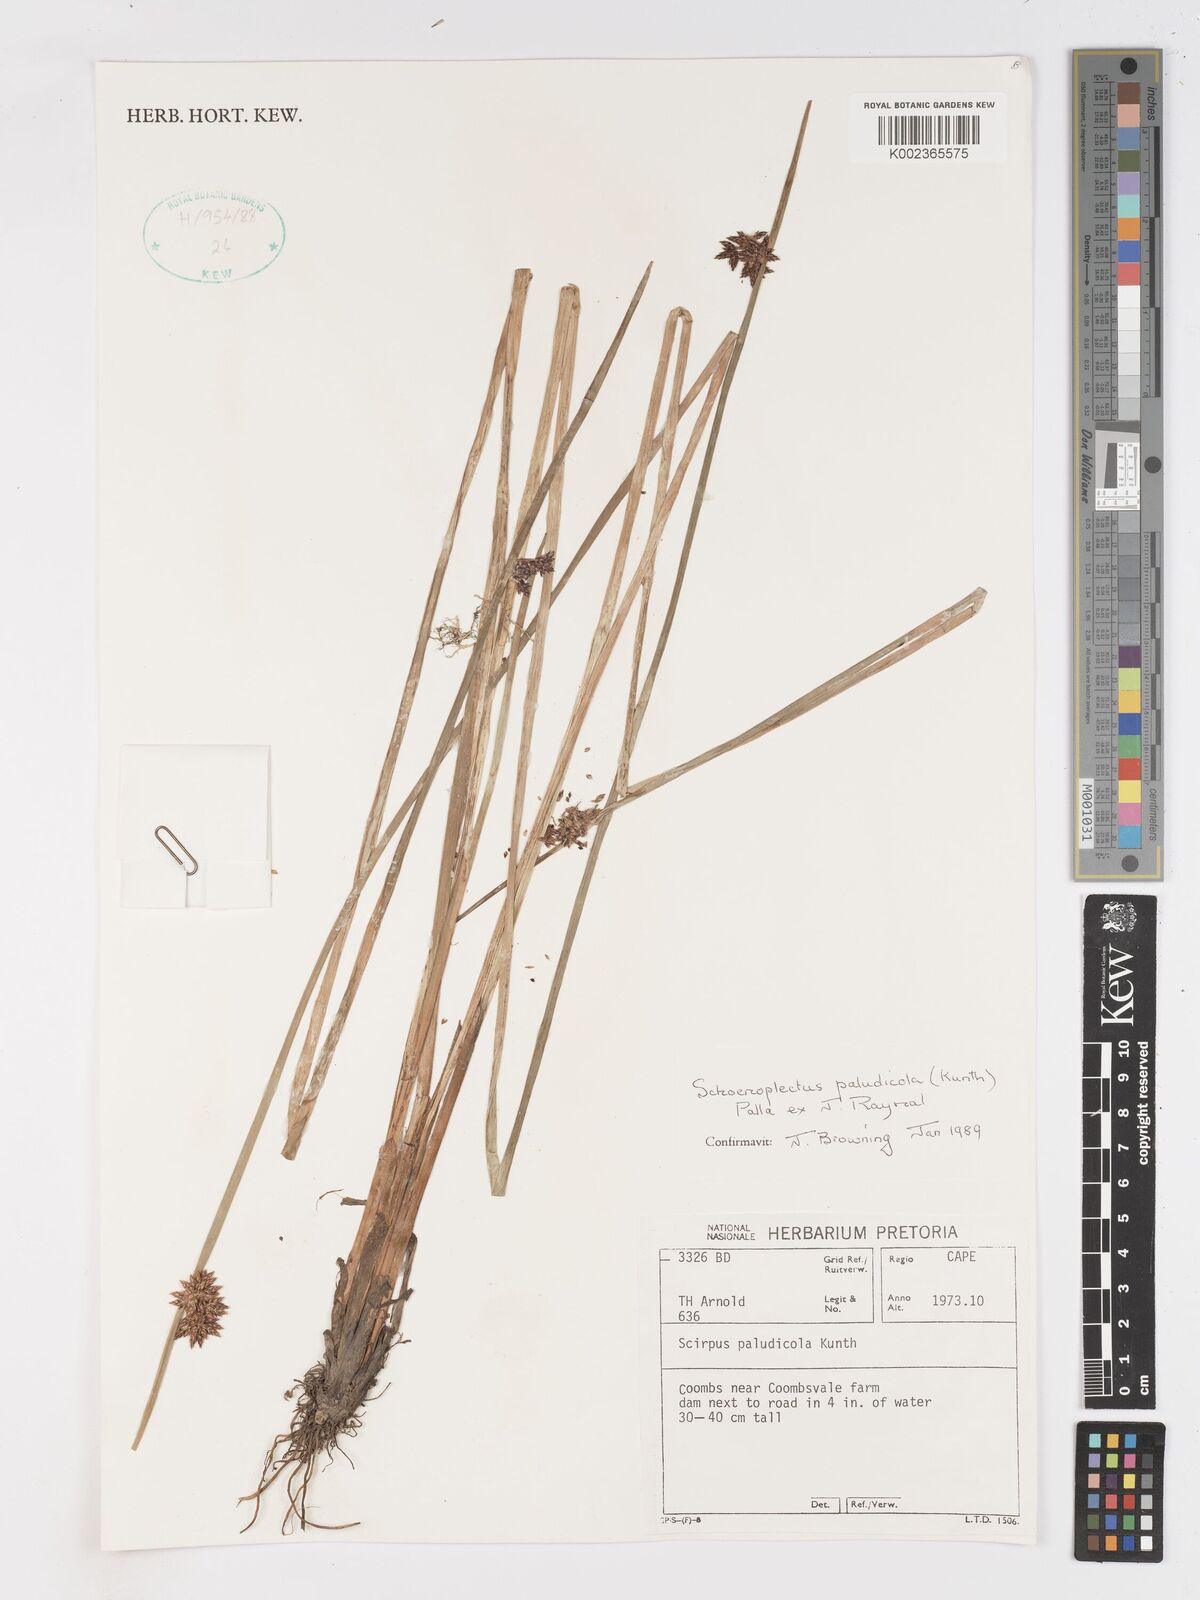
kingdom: Plantae
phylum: Tracheophyta
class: Liliopsida
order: Poales
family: Cyperaceae
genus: Schoenoplectiella
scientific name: Schoenoplectiella paludicola
